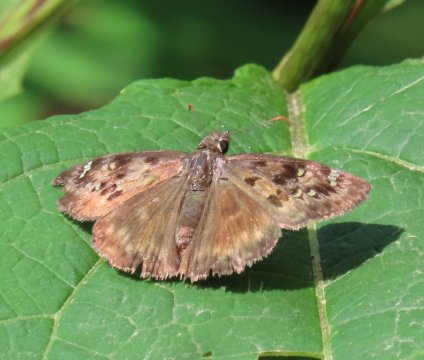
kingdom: Animalia
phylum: Arthropoda
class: Insecta
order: Lepidoptera
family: Hesperiidae
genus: Gesta
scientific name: Gesta
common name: Horace's Duskywing
